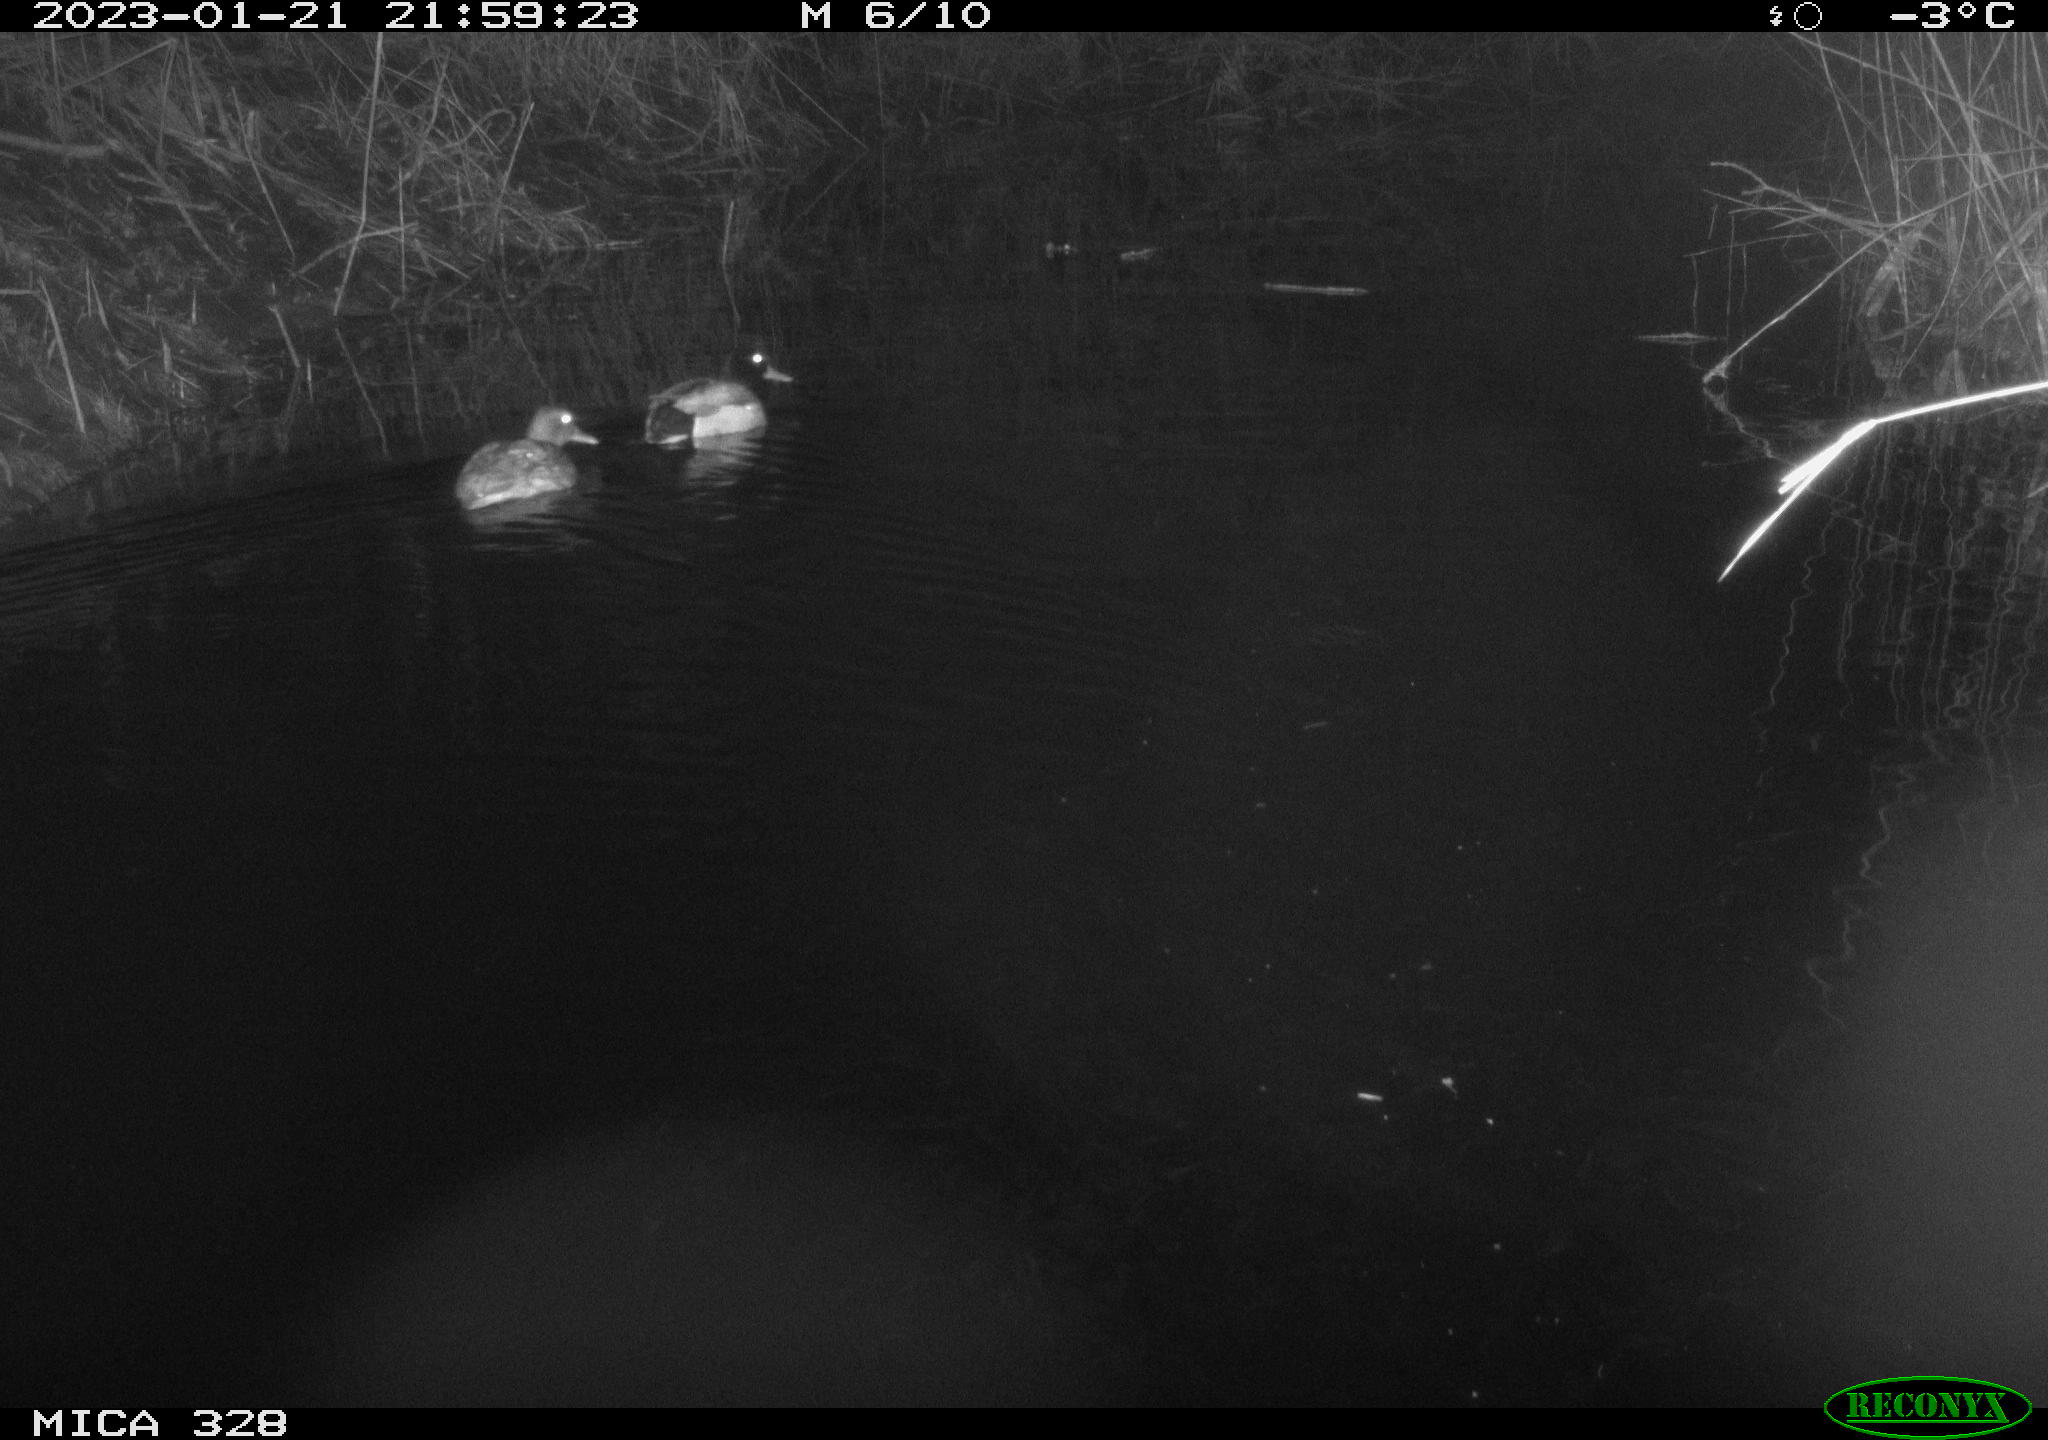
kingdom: Animalia
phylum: Chordata
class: Aves
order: Anseriformes
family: Anatidae
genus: Anas
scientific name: Anas
